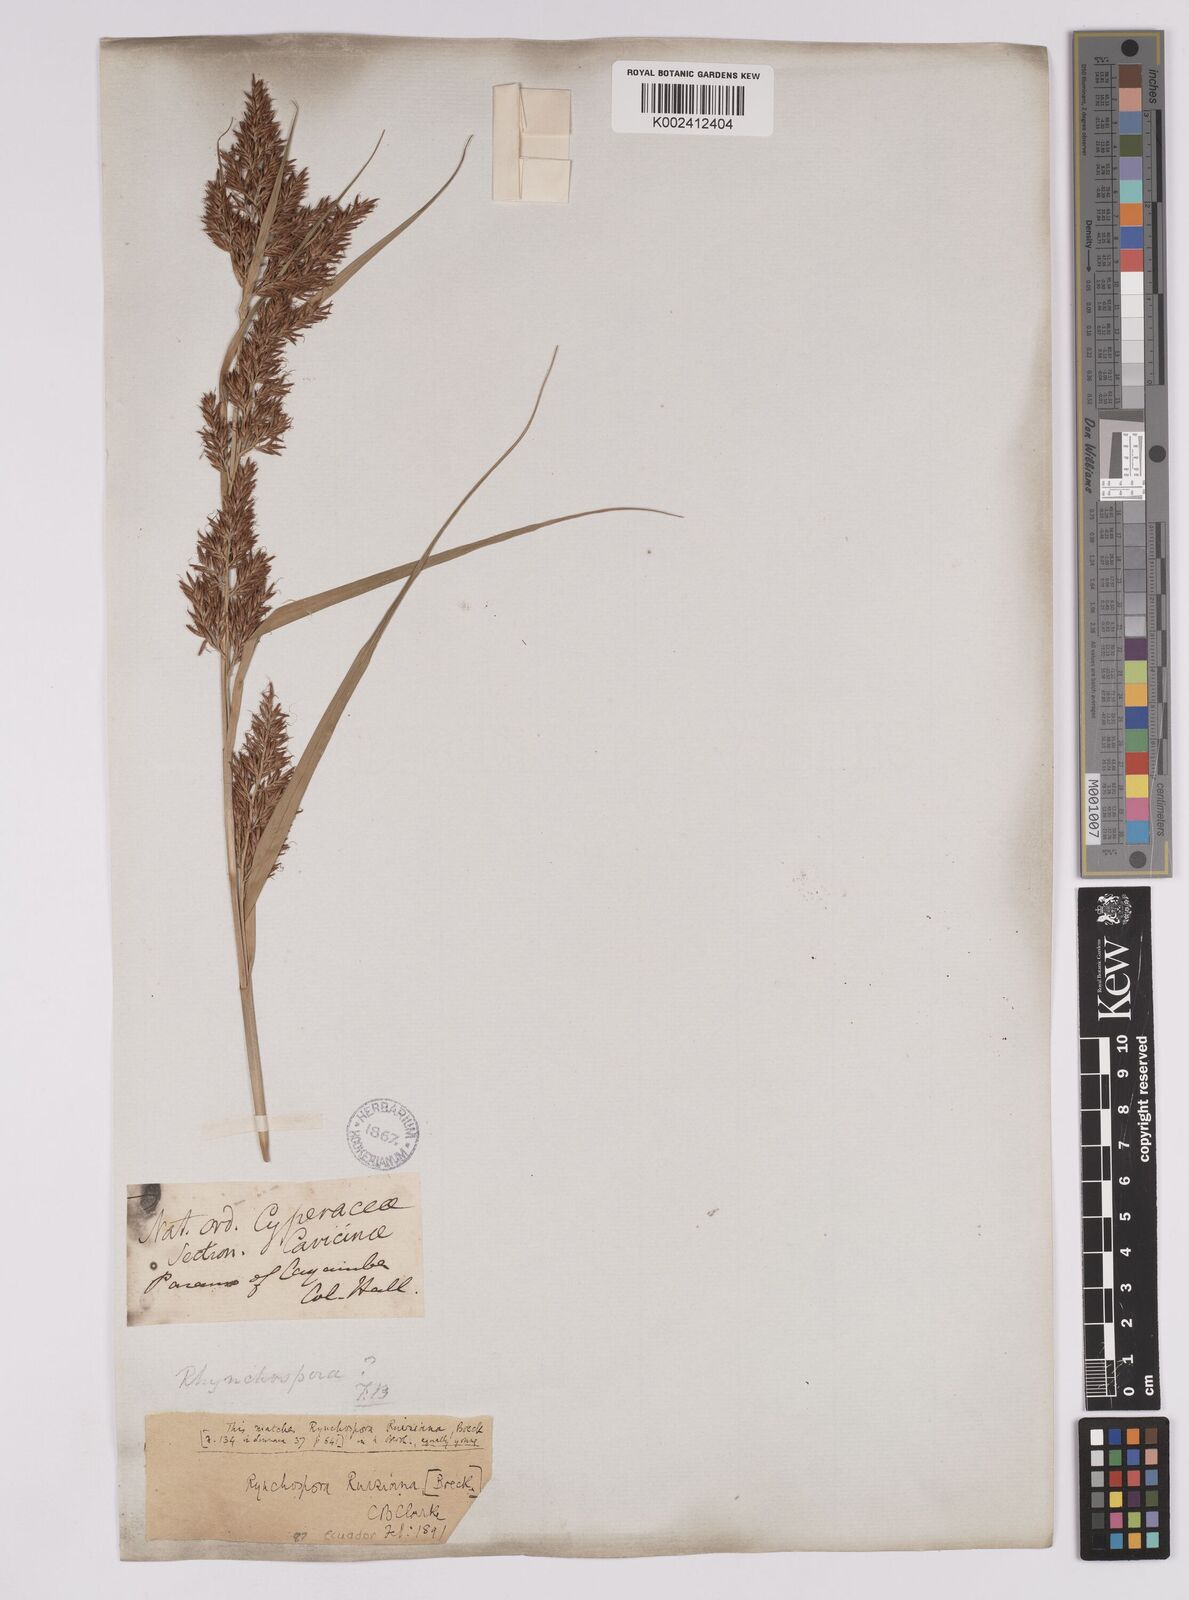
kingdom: Plantae
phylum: Tracheophyta
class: Liliopsida
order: Poales
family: Cyperaceae
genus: Rhynchospora
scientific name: Rhynchospora ruiziana
